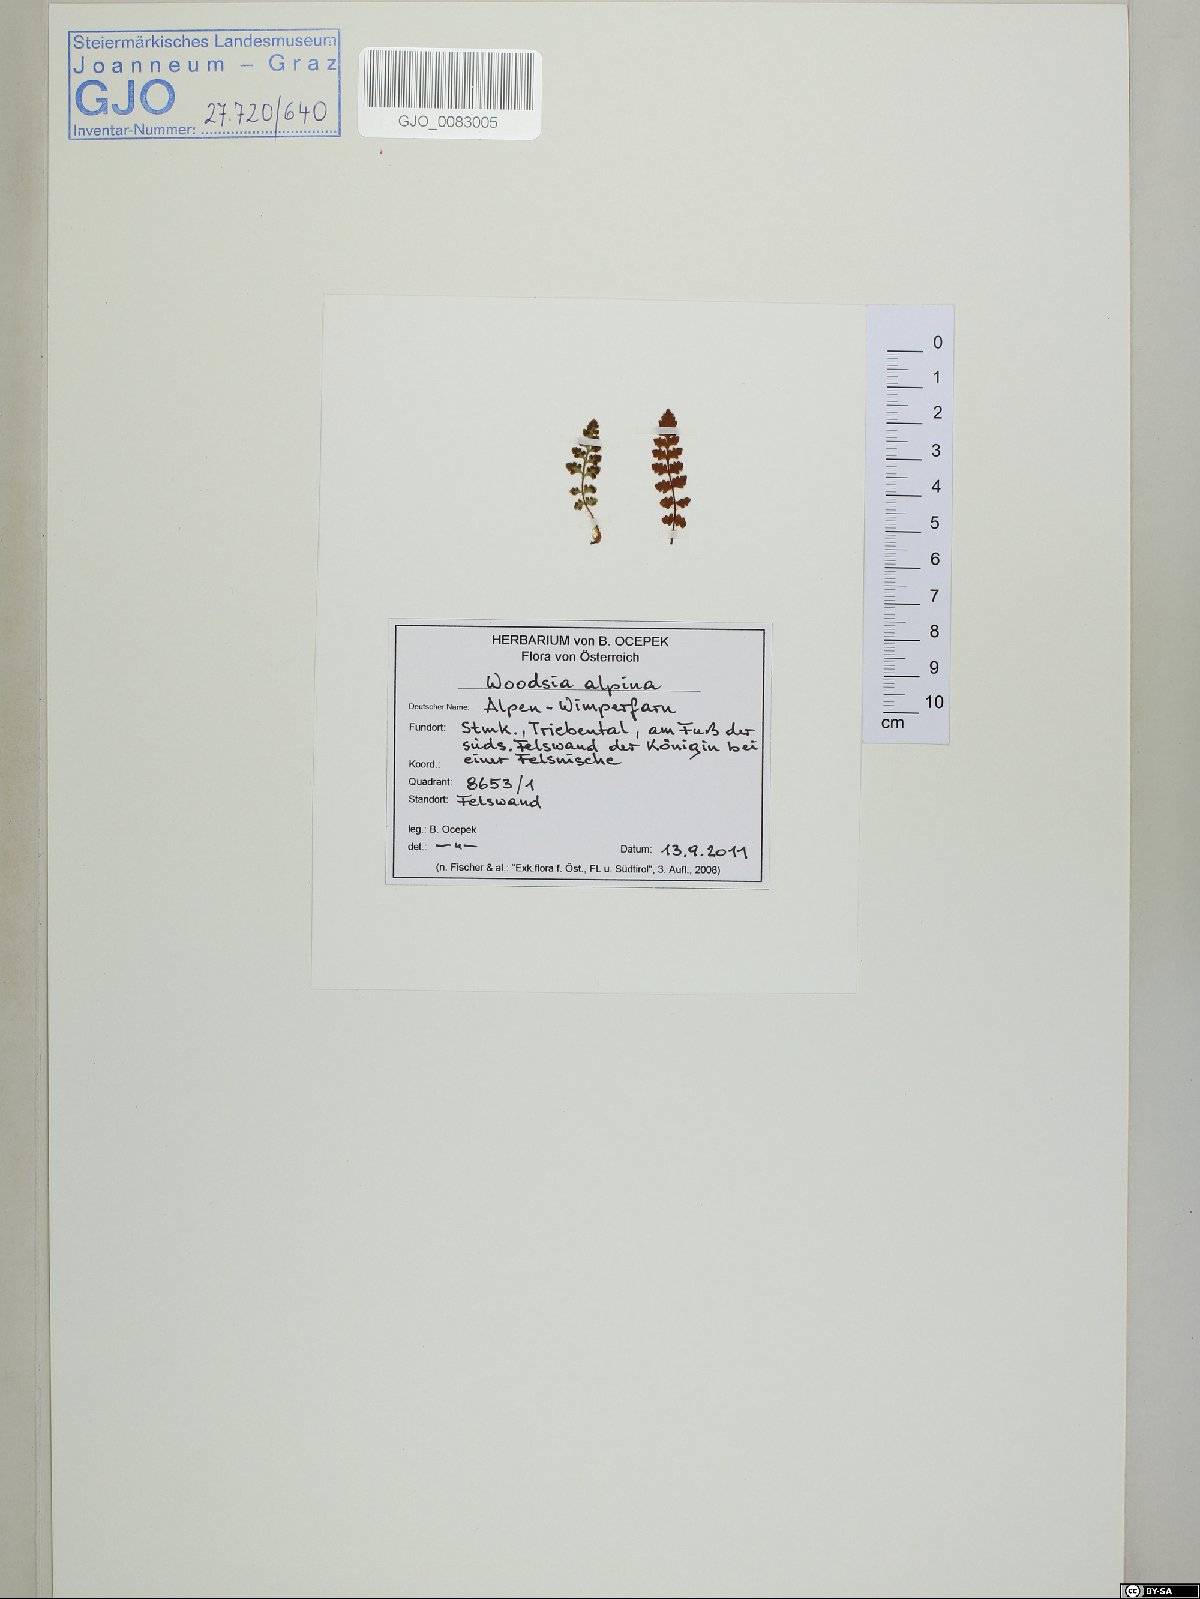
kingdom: Plantae
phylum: Tracheophyta
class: Polypodiopsida
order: Polypodiales
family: Woodsiaceae
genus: Woodsia
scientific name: Woodsia alpina
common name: Alpine woodsia
